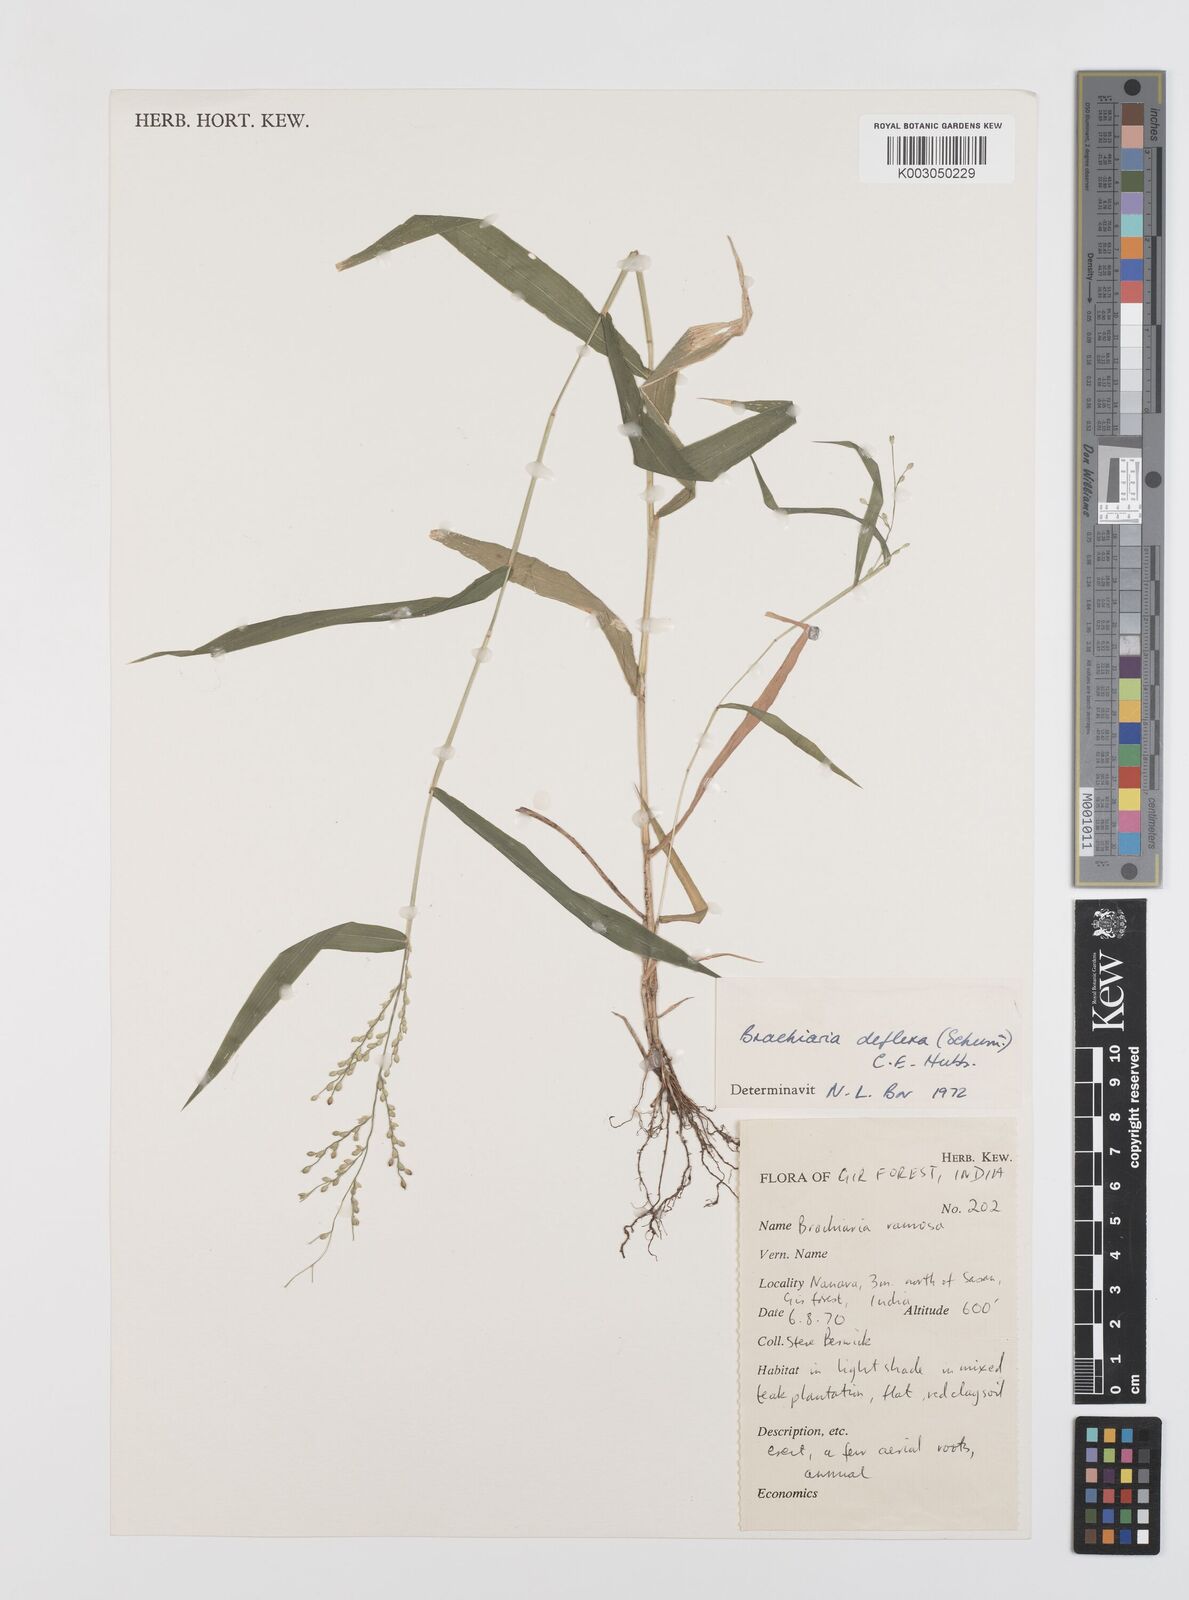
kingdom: Plantae
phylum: Tracheophyta
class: Liliopsida
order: Poales
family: Poaceae
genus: Urochloa
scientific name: Urochloa ramosa
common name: Browntop millet
